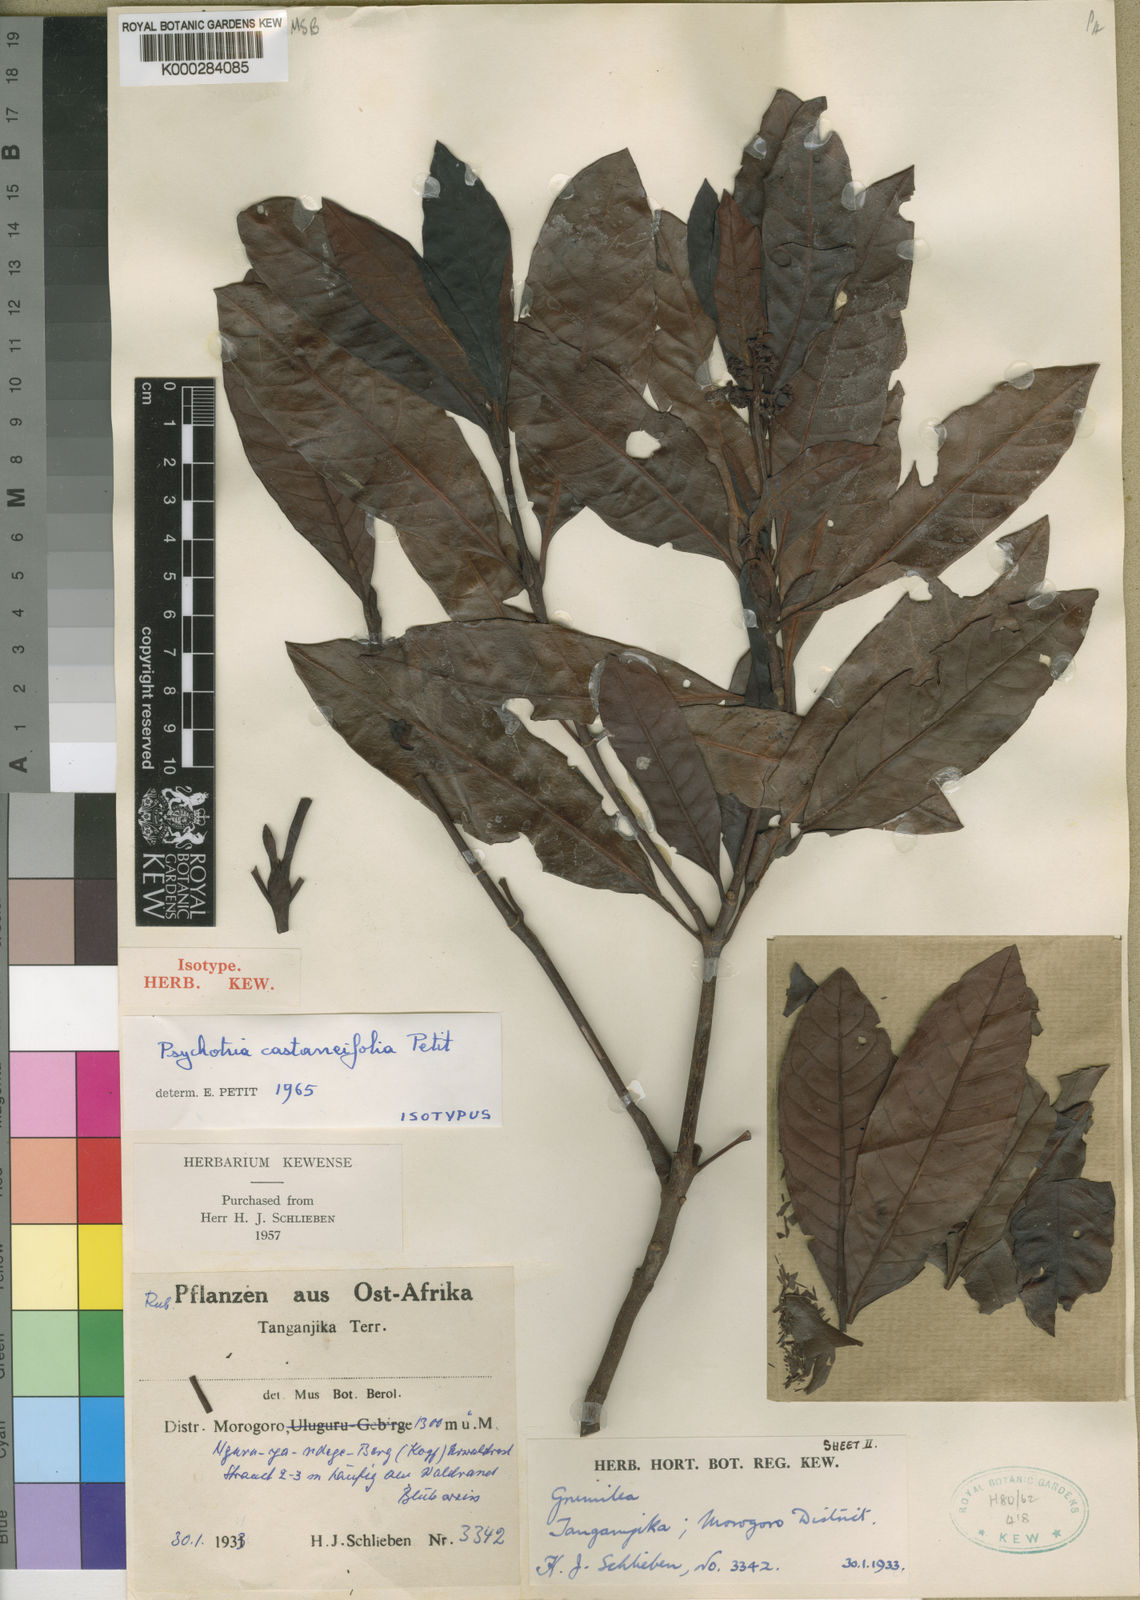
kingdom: Plantae
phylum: Tracheophyta
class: Magnoliopsida
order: Gentianales
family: Rubiaceae
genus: Psychotria
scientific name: Psychotria castaneifolia
